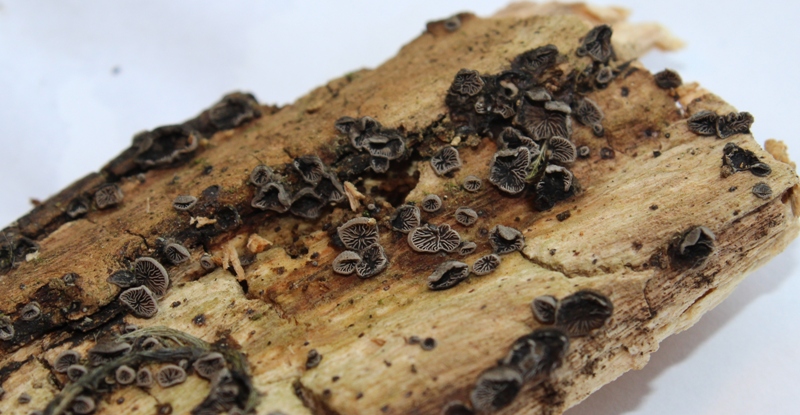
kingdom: Fungi
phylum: Basidiomycota
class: Agaricomycetes
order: Agaricales
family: Pleurotaceae
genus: Resupinatus
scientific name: Resupinatus applicatus
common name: lysfiltet barkhat
